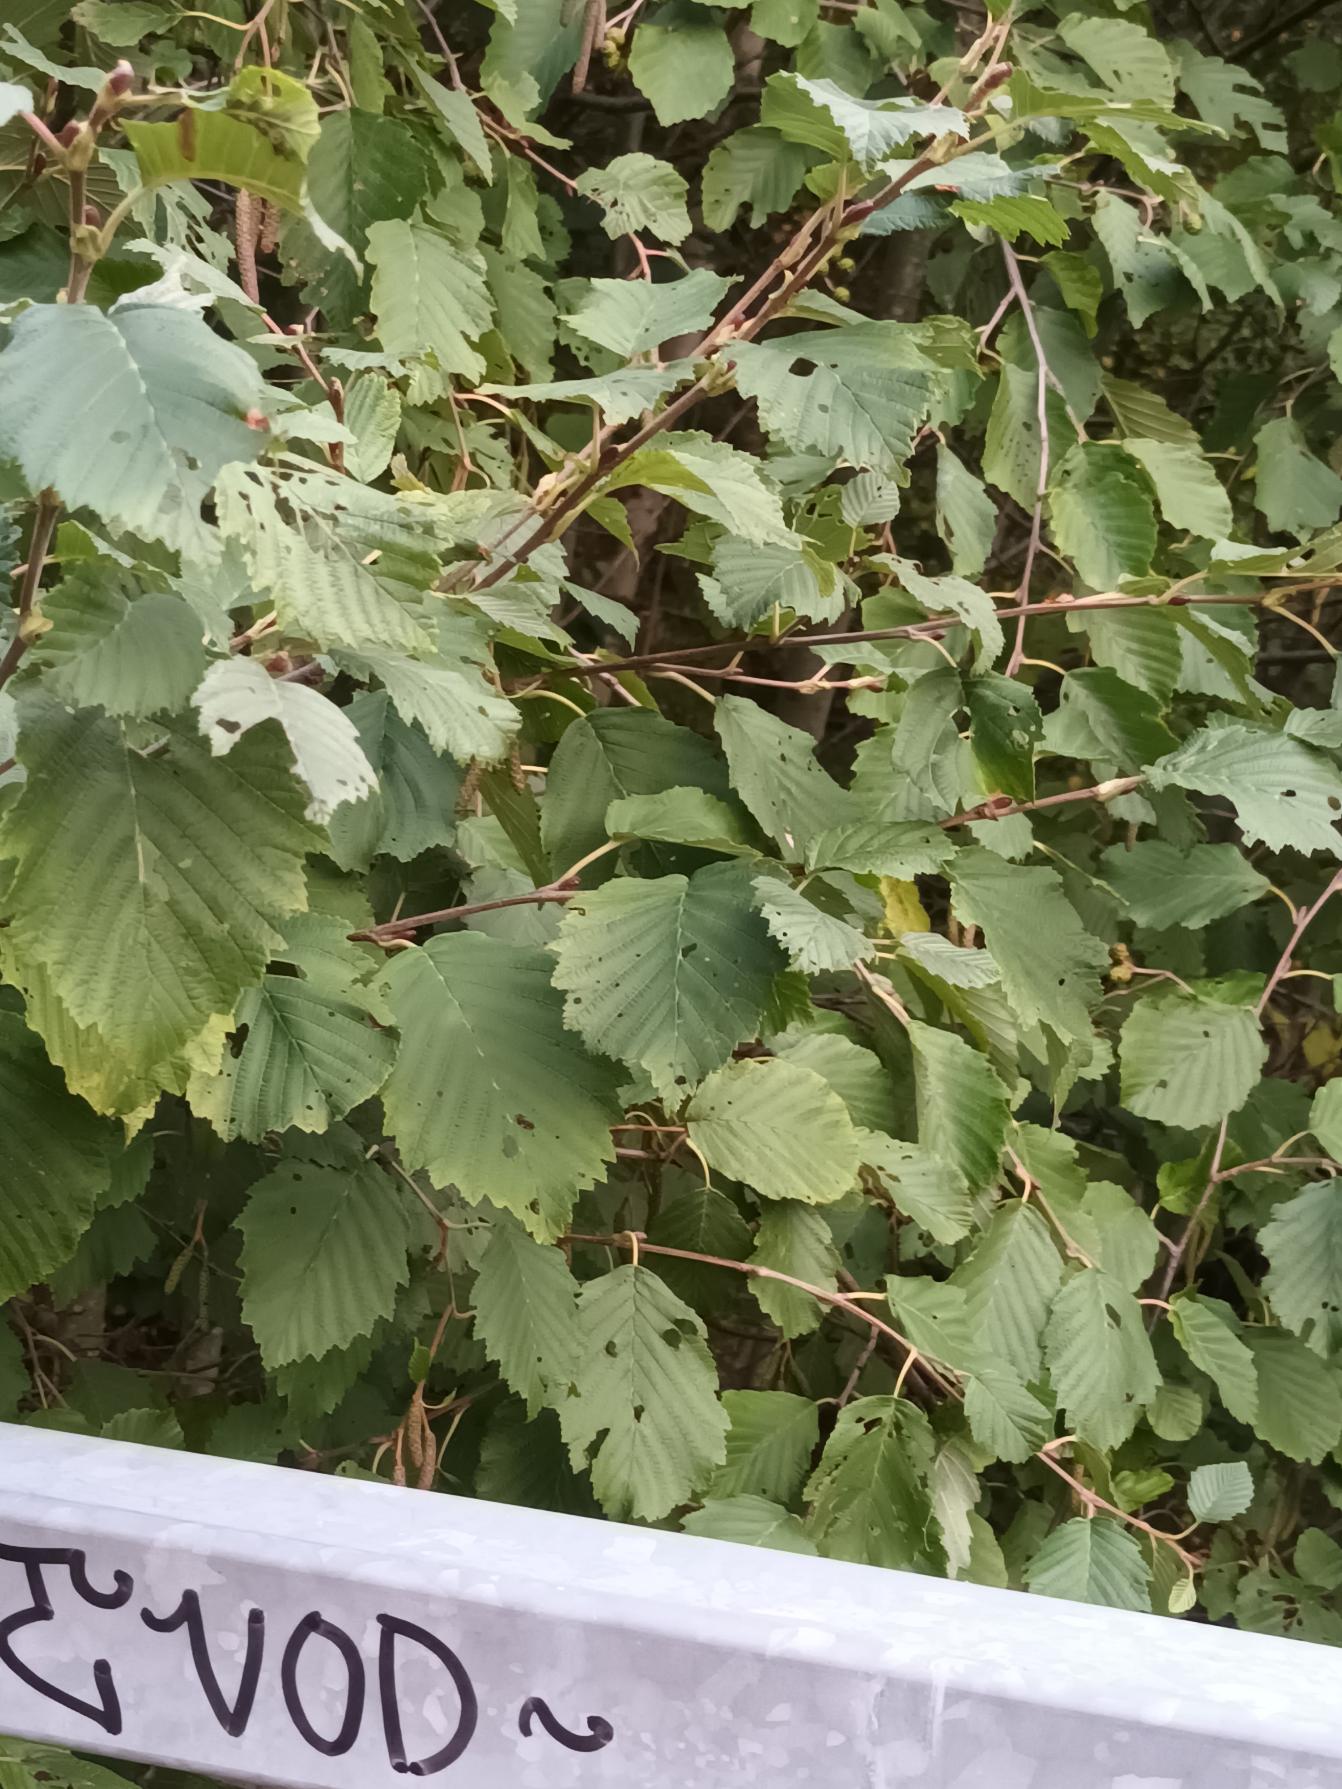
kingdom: Plantae
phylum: Tracheophyta
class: Magnoliopsida
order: Fagales
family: Betulaceae
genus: Alnus
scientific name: Alnus incana
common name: Grå-el/hvid-el
